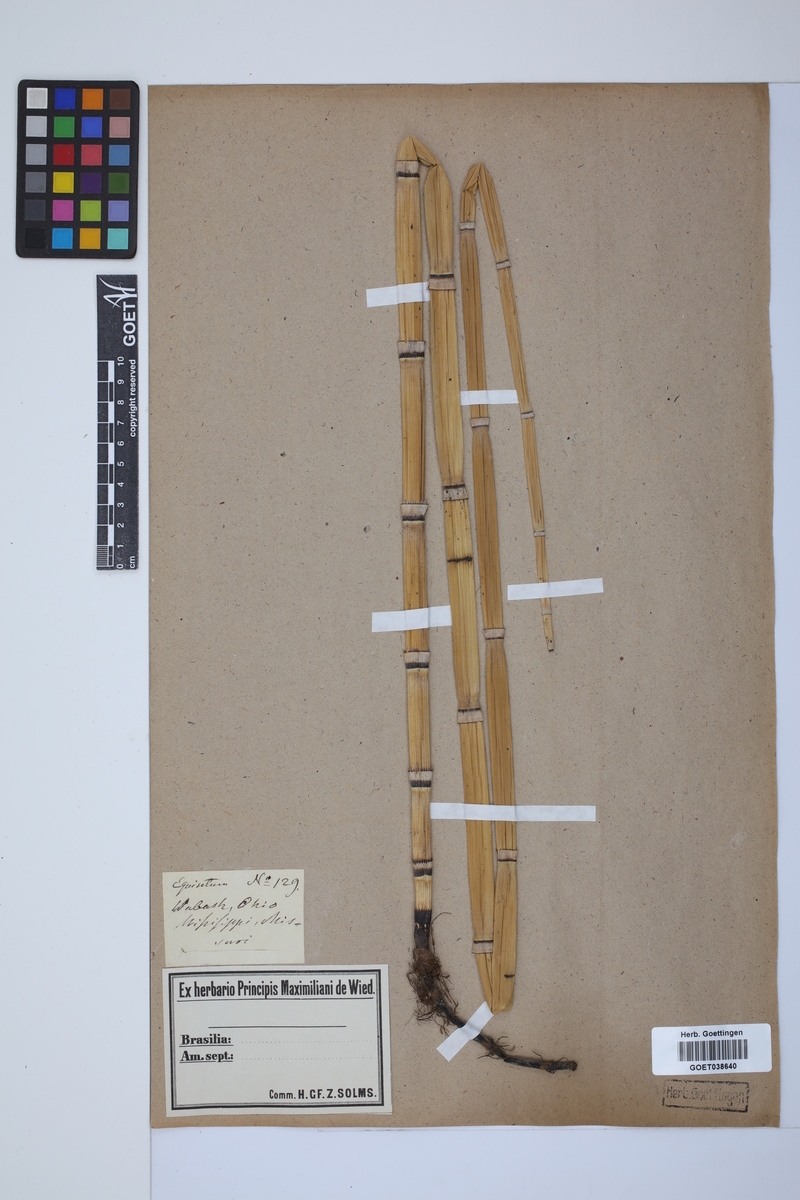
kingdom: Plantae
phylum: Tracheophyta
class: Polypodiopsida
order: Equisetales
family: Equisetaceae
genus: Equisetum
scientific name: Equisetum hyemale
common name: Rough horsetail
